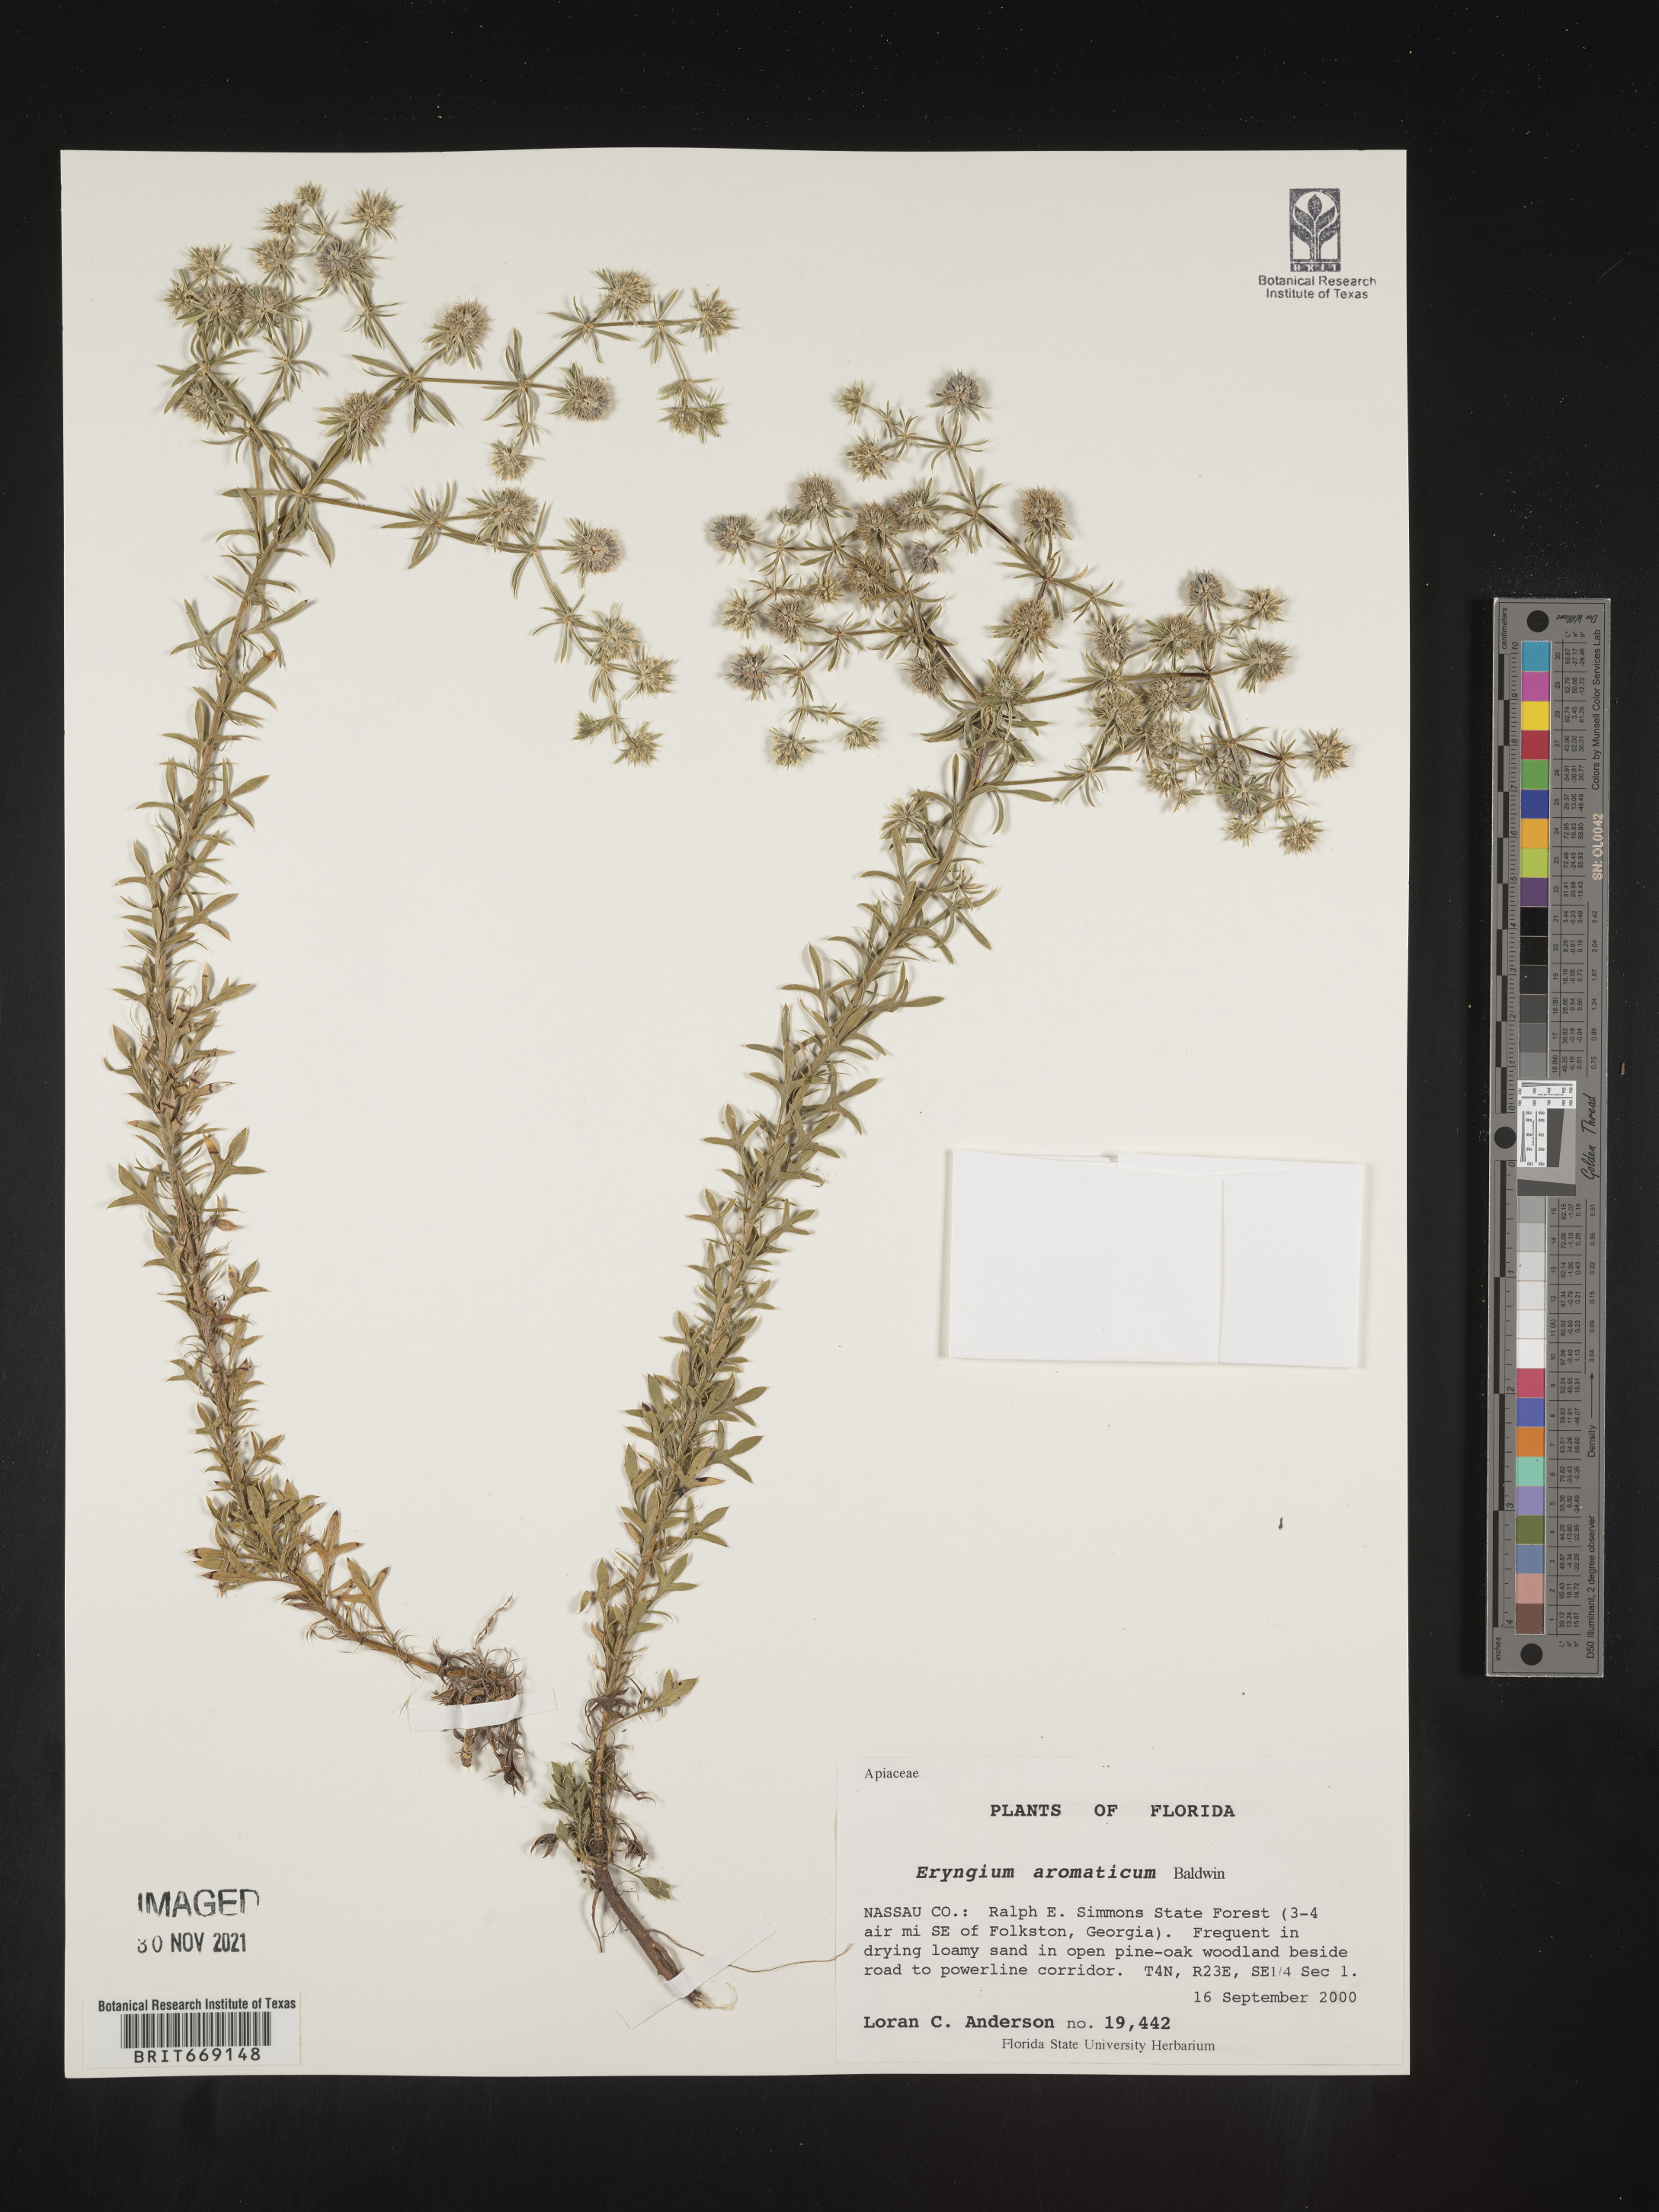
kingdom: Plantae
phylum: Tracheophyta
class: Magnoliopsida
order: Apiales
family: Apiaceae
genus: Eryngium
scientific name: Eryngium aromaticum
